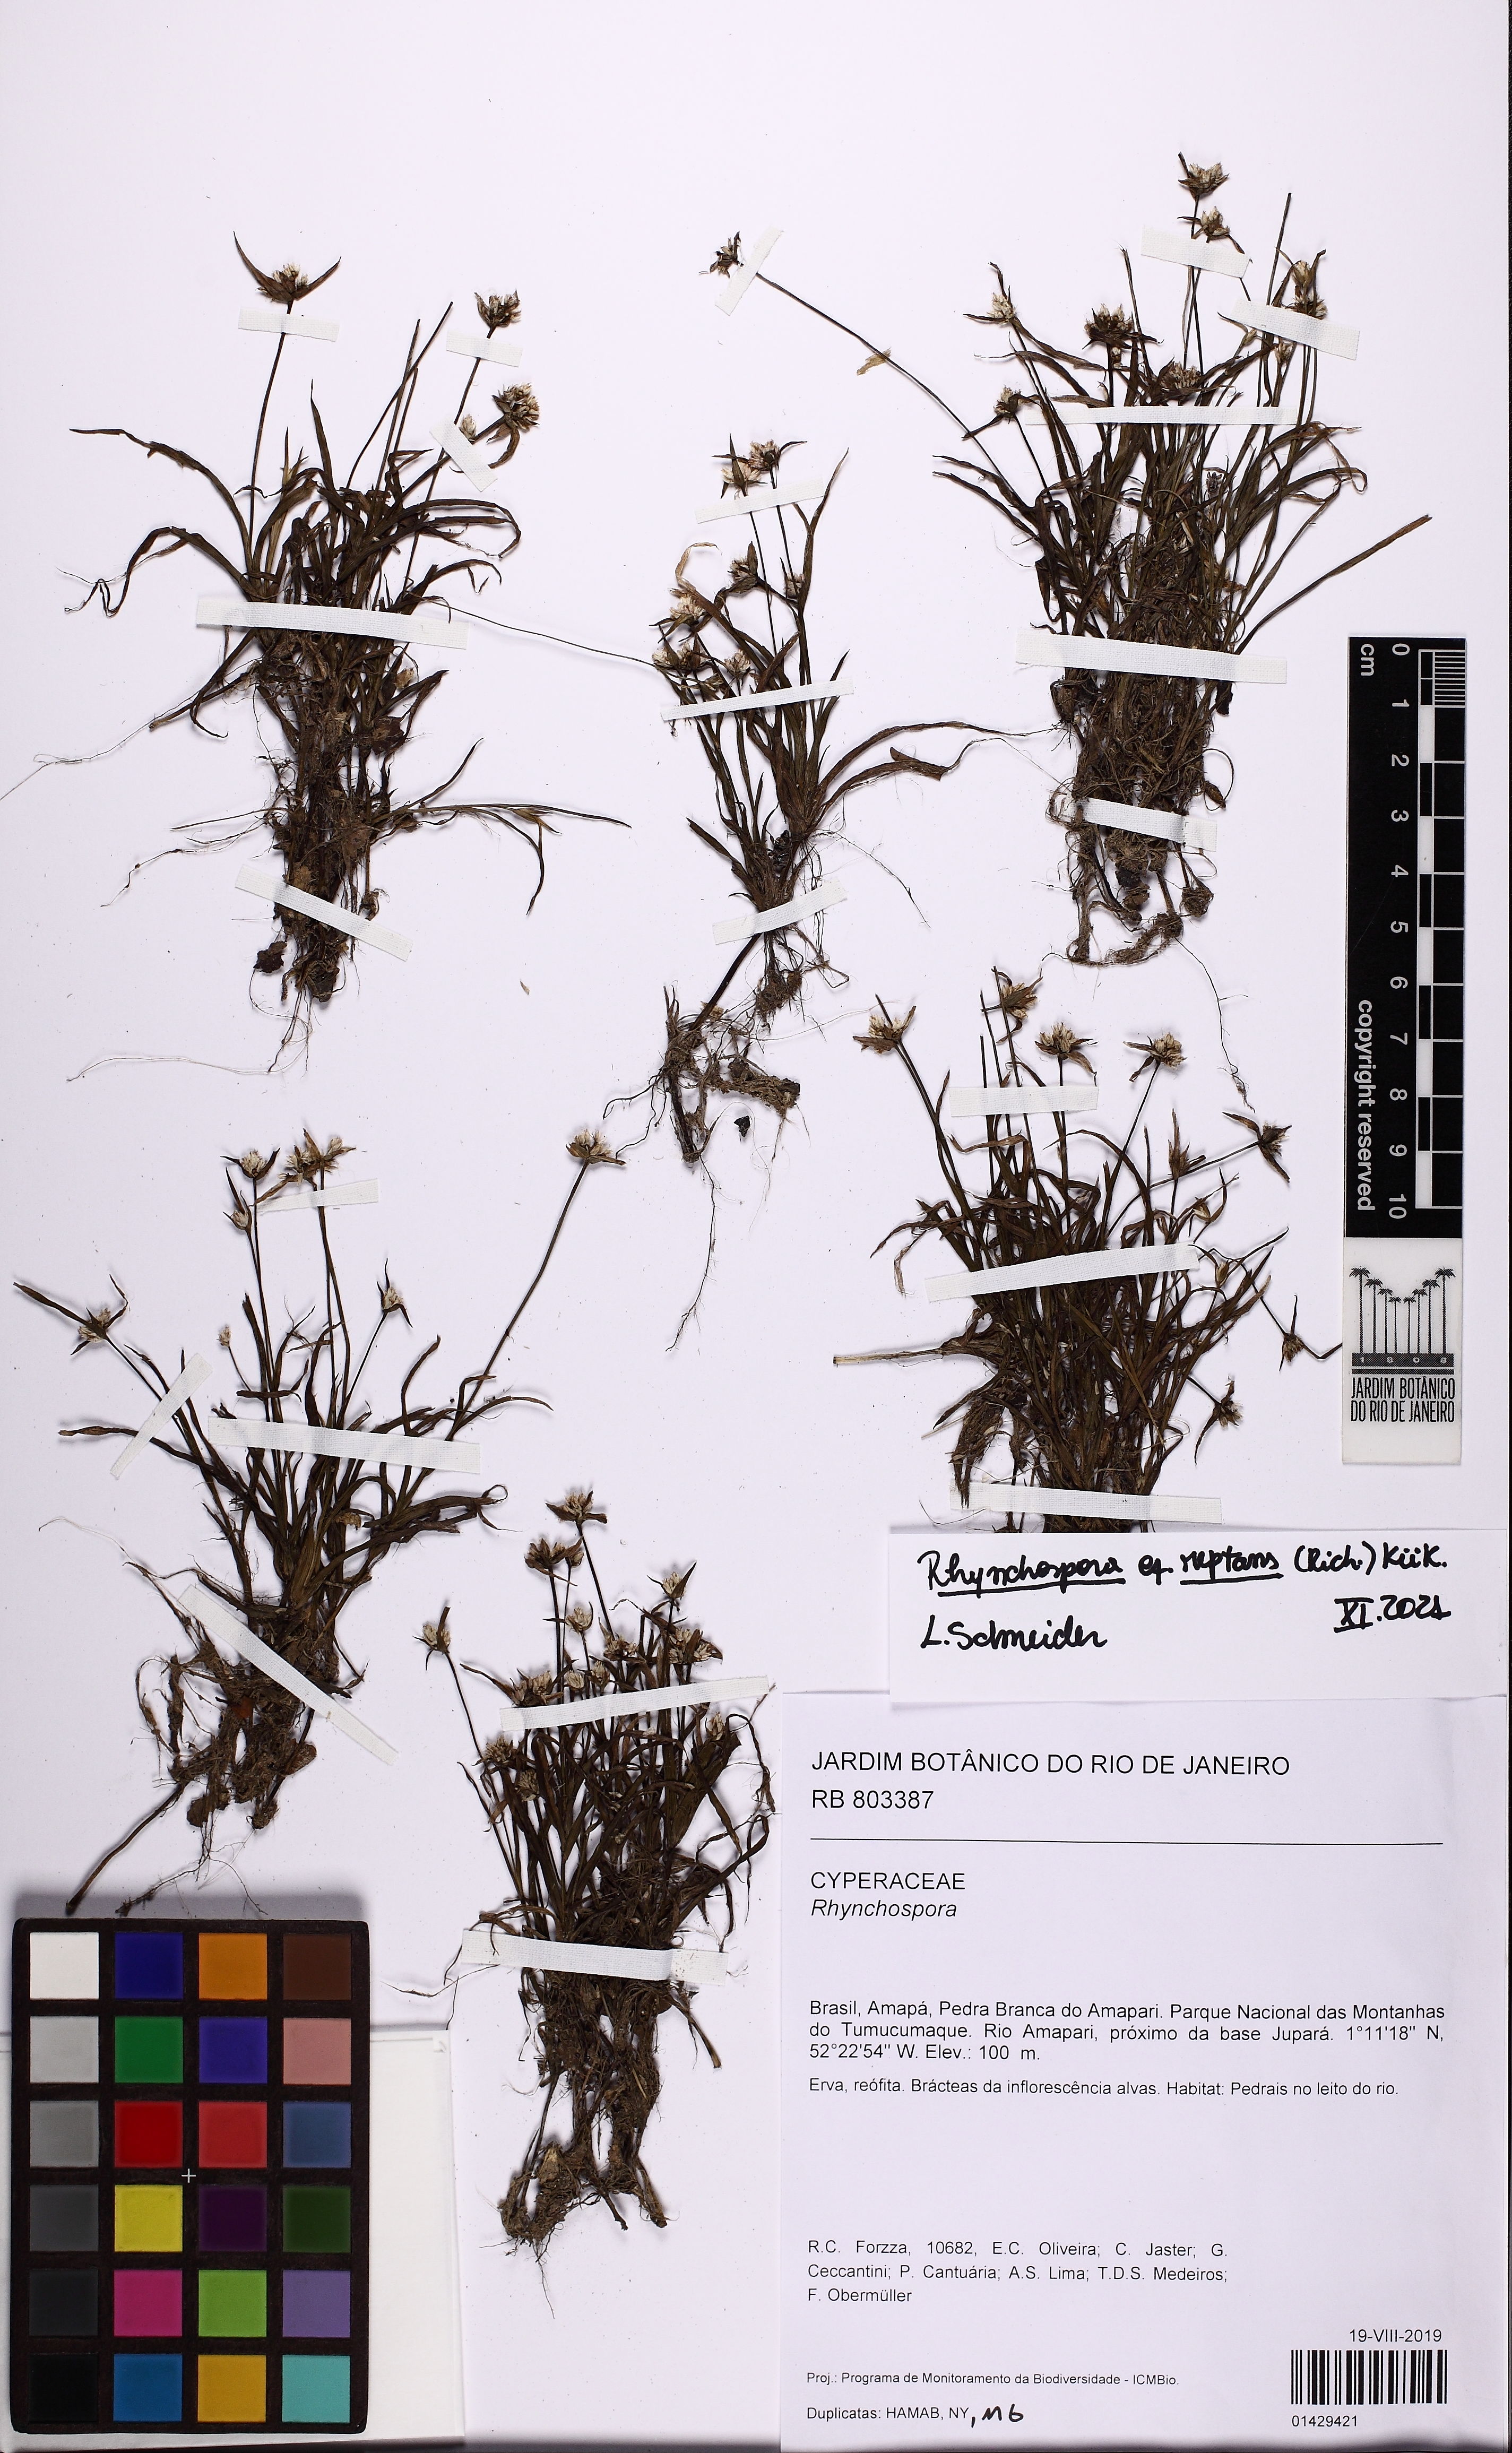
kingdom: Plantae
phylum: Tracheophyta
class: Liliopsida
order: Poales
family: Cyperaceae
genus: Rhynchospora
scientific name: Rhynchospora reptans
